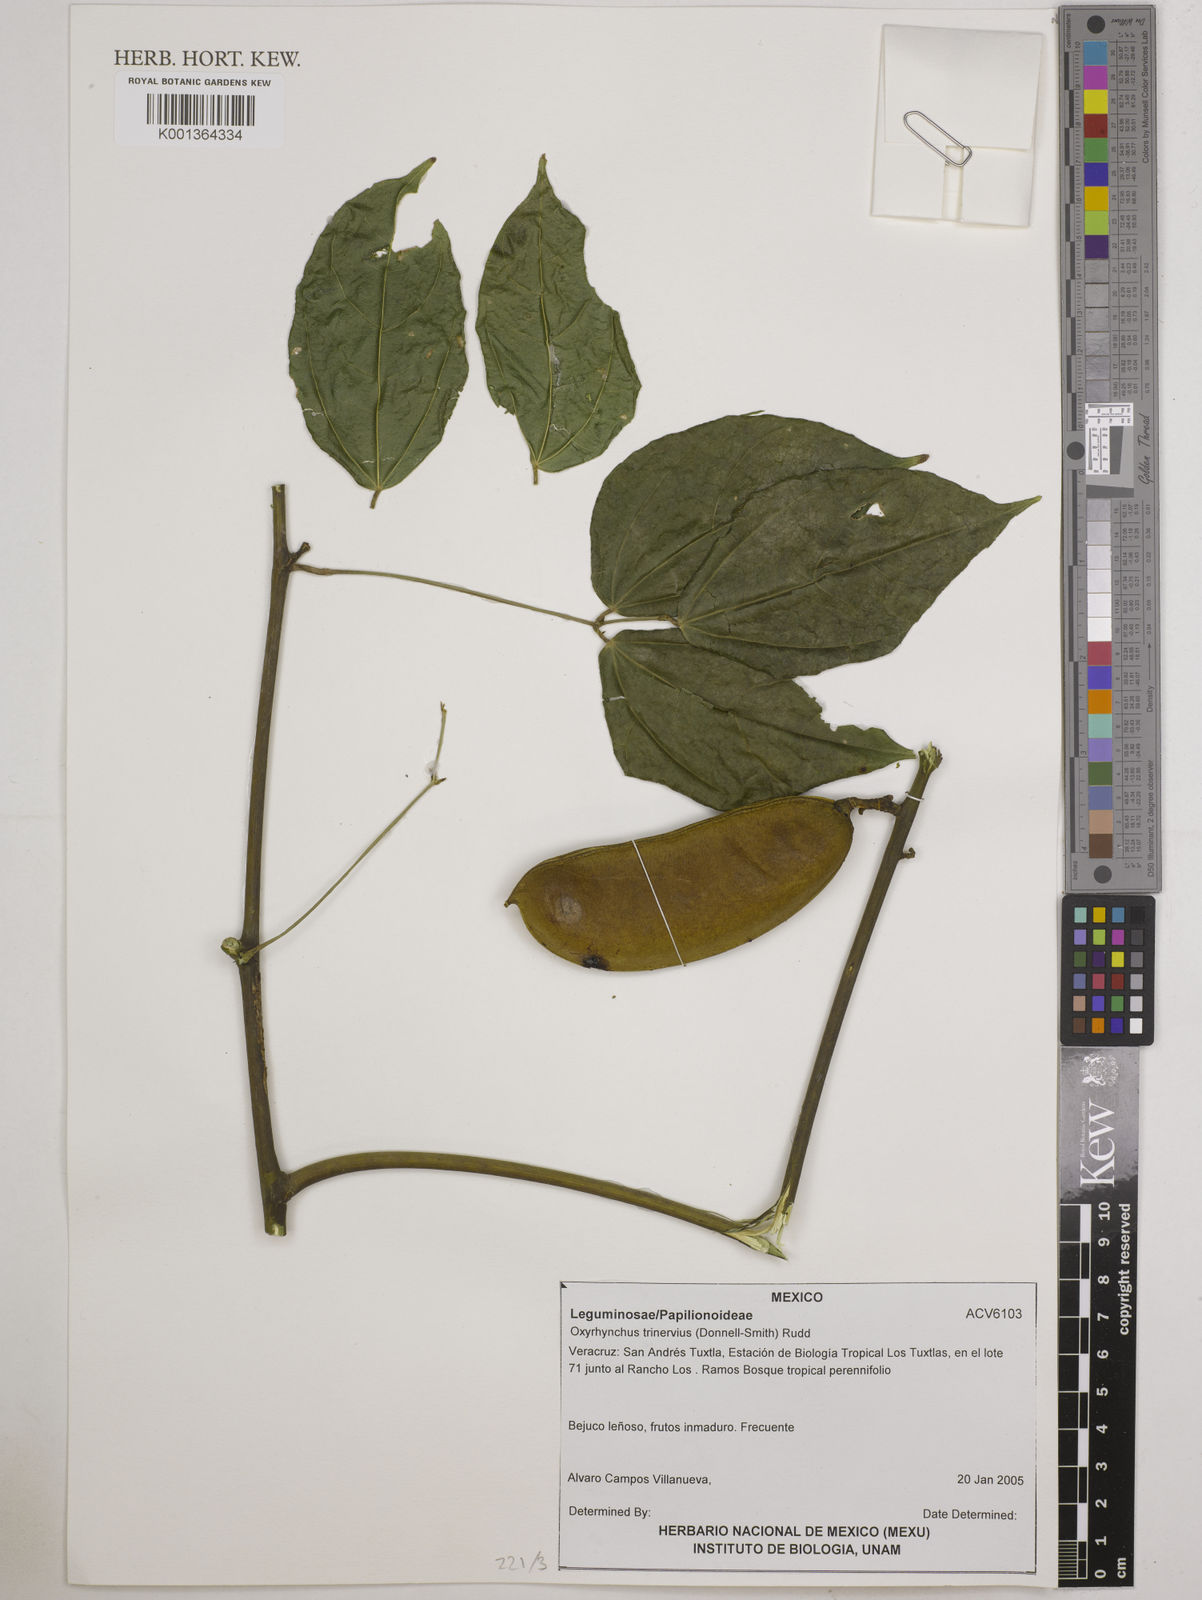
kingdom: Plantae
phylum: Tracheophyta
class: Magnoliopsida
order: Fabales
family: Fabaceae
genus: Oxyrhynchus
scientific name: Oxyrhynchus trinervius
